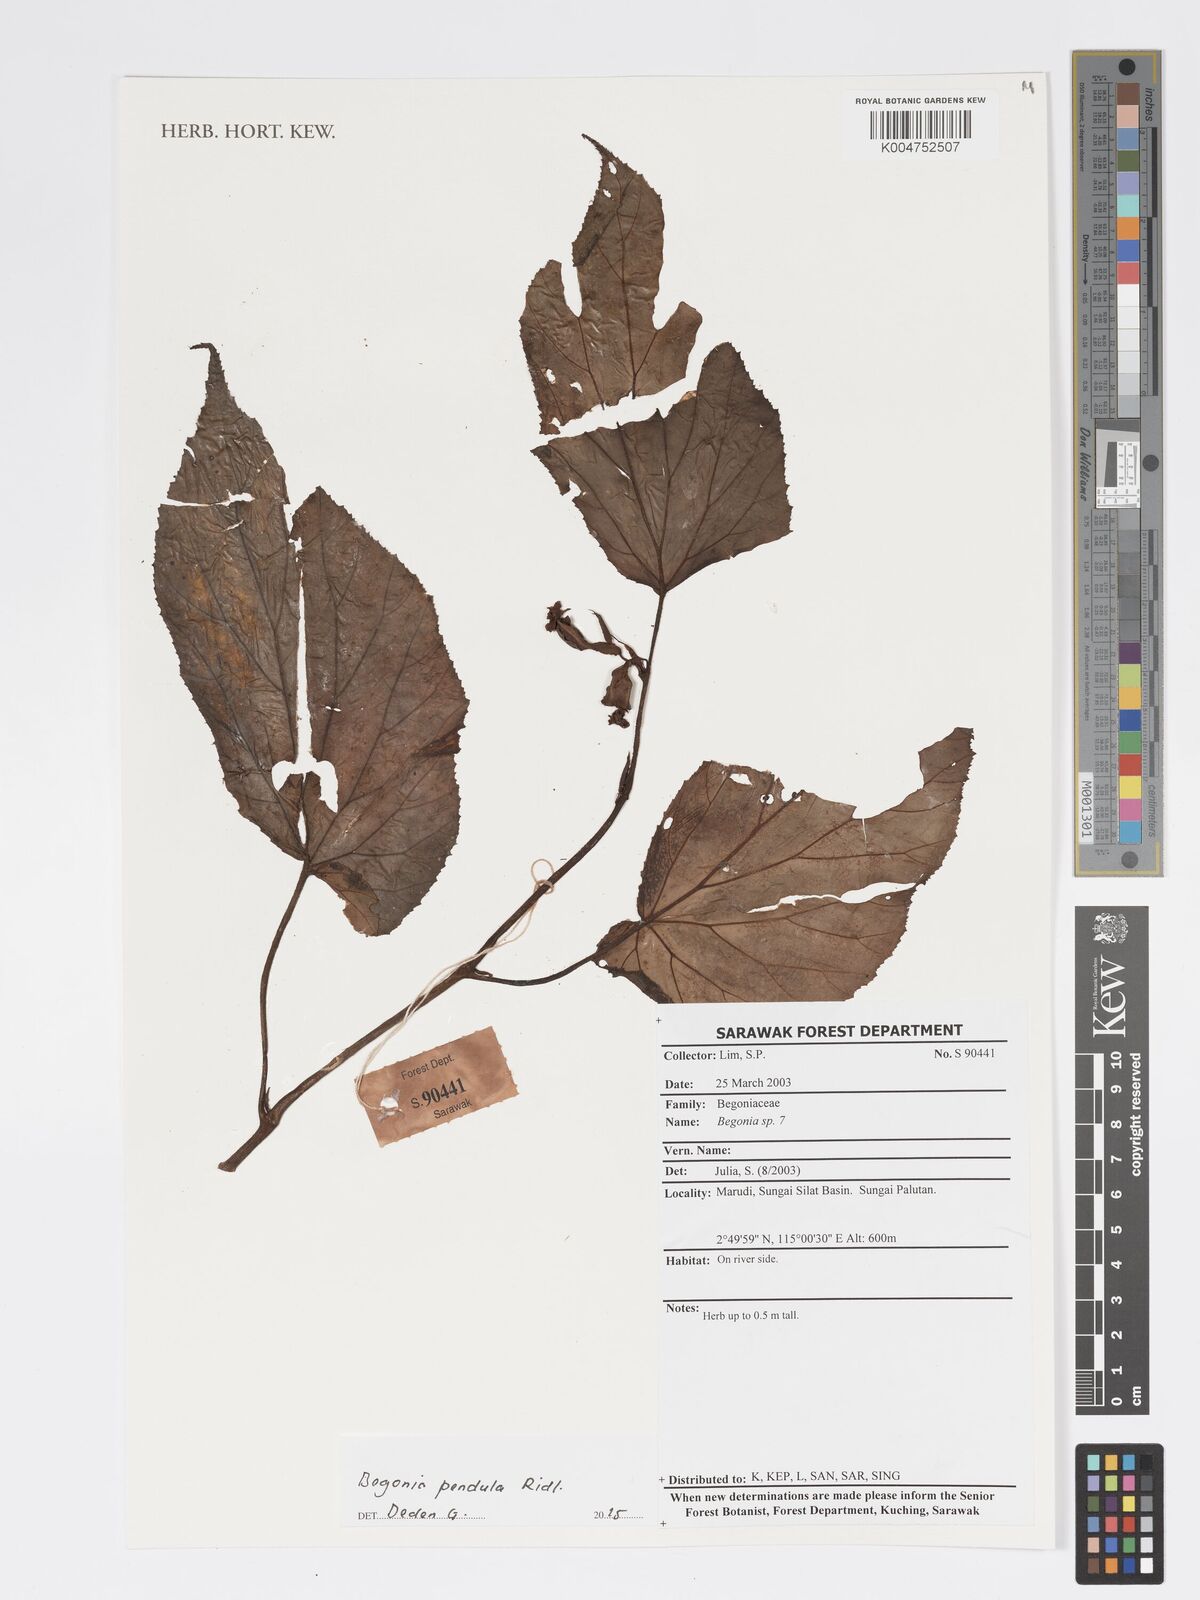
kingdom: Plantae
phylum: Tracheophyta
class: Magnoliopsida
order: Cucurbitales
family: Begoniaceae
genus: Begonia
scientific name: Begonia
